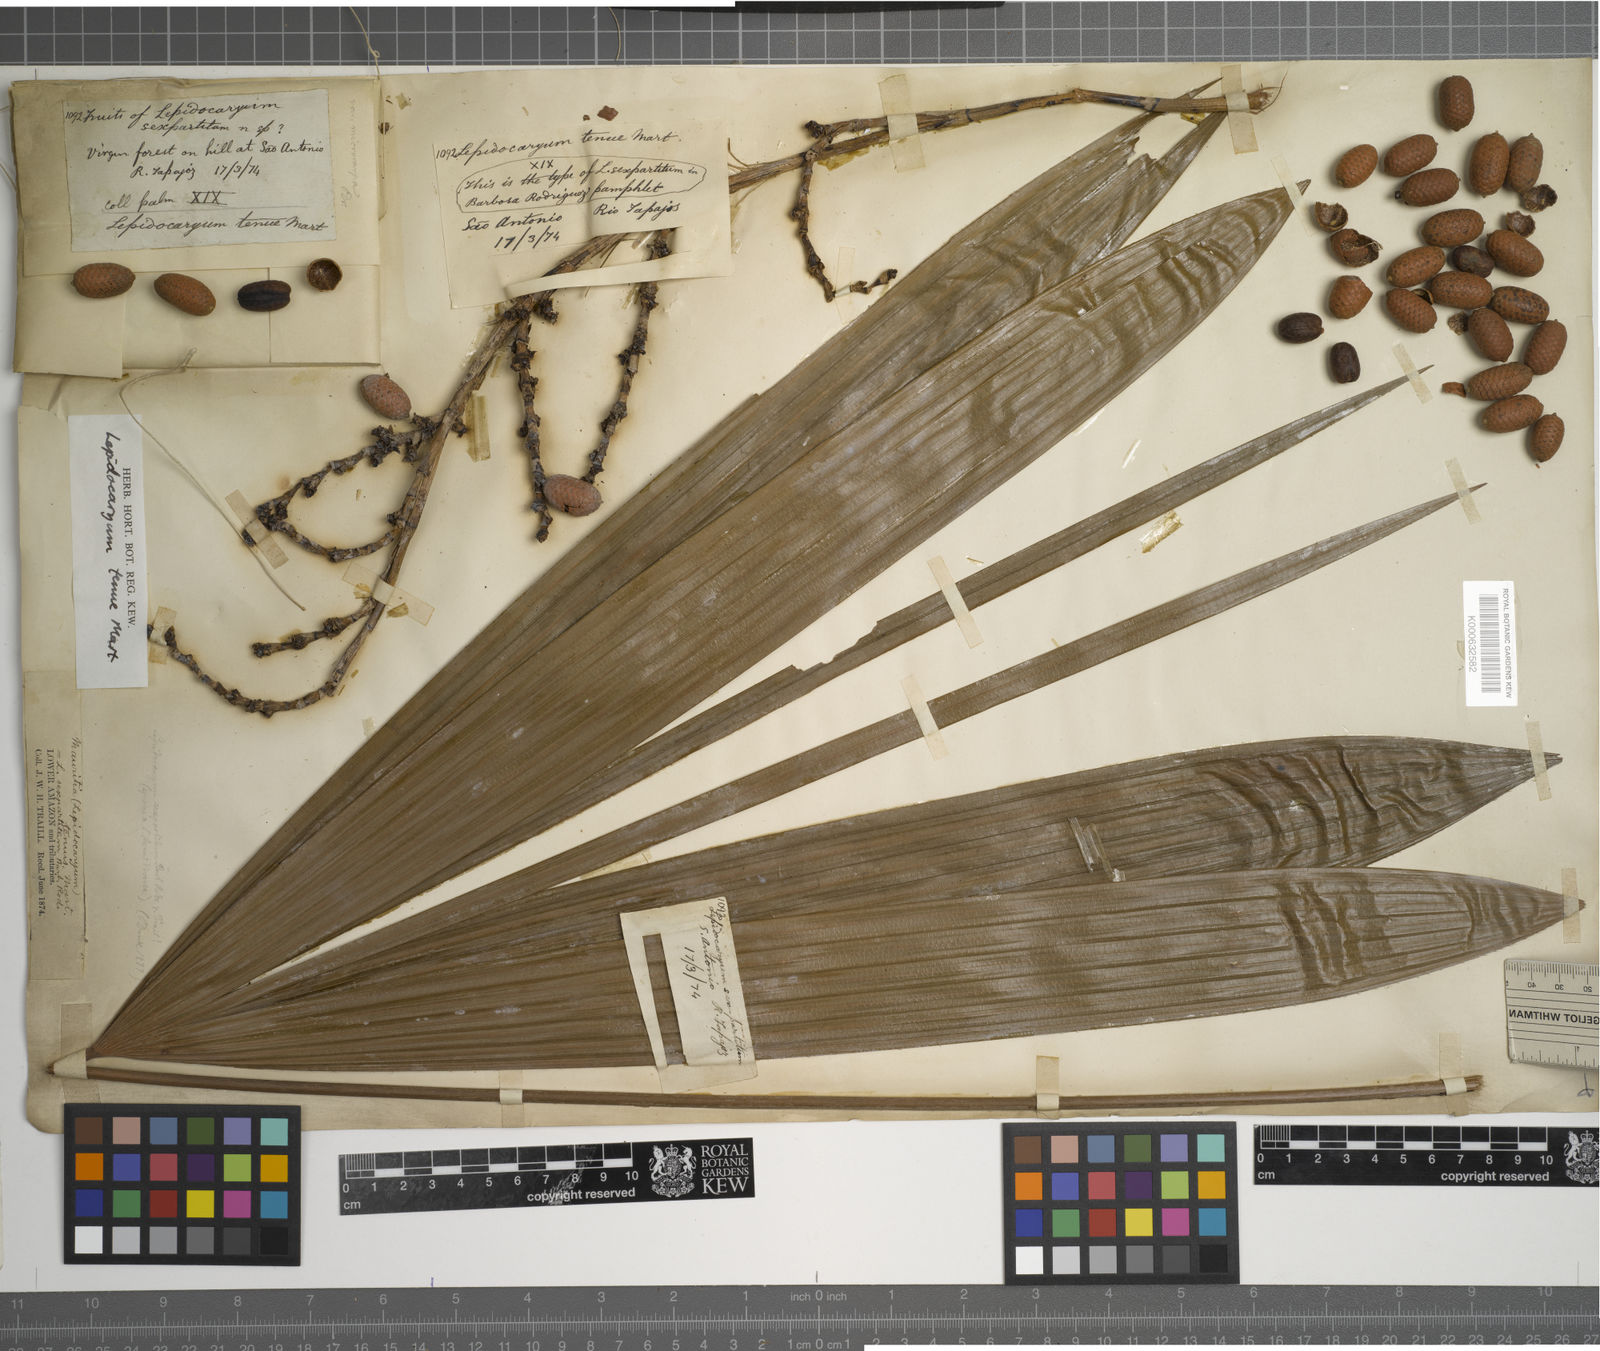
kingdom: Plantae
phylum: Tracheophyta
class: Liliopsida
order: Arecales
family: Arecaceae
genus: Lepidocaryum
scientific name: Lepidocaryum tenue
